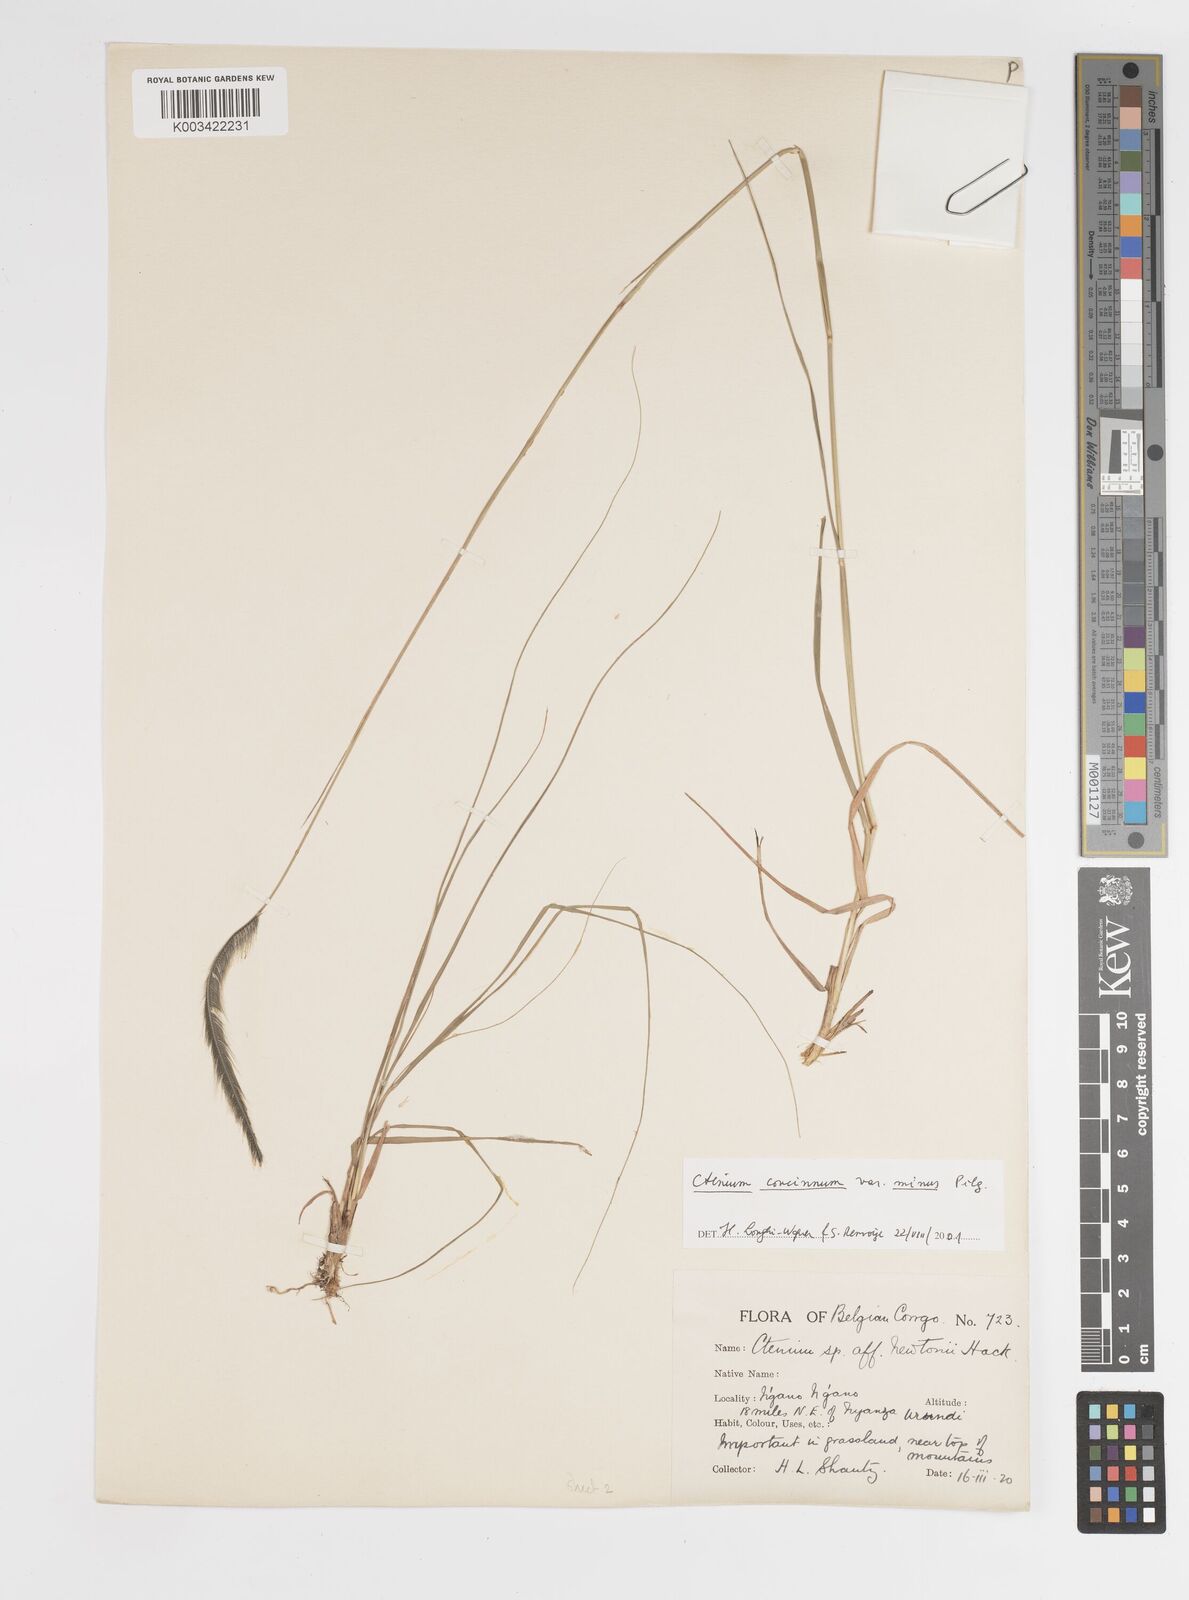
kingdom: Plantae
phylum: Tracheophyta
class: Liliopsida
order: Poales
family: Poaceae
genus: Ctenium
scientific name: Ctenium concinnum
